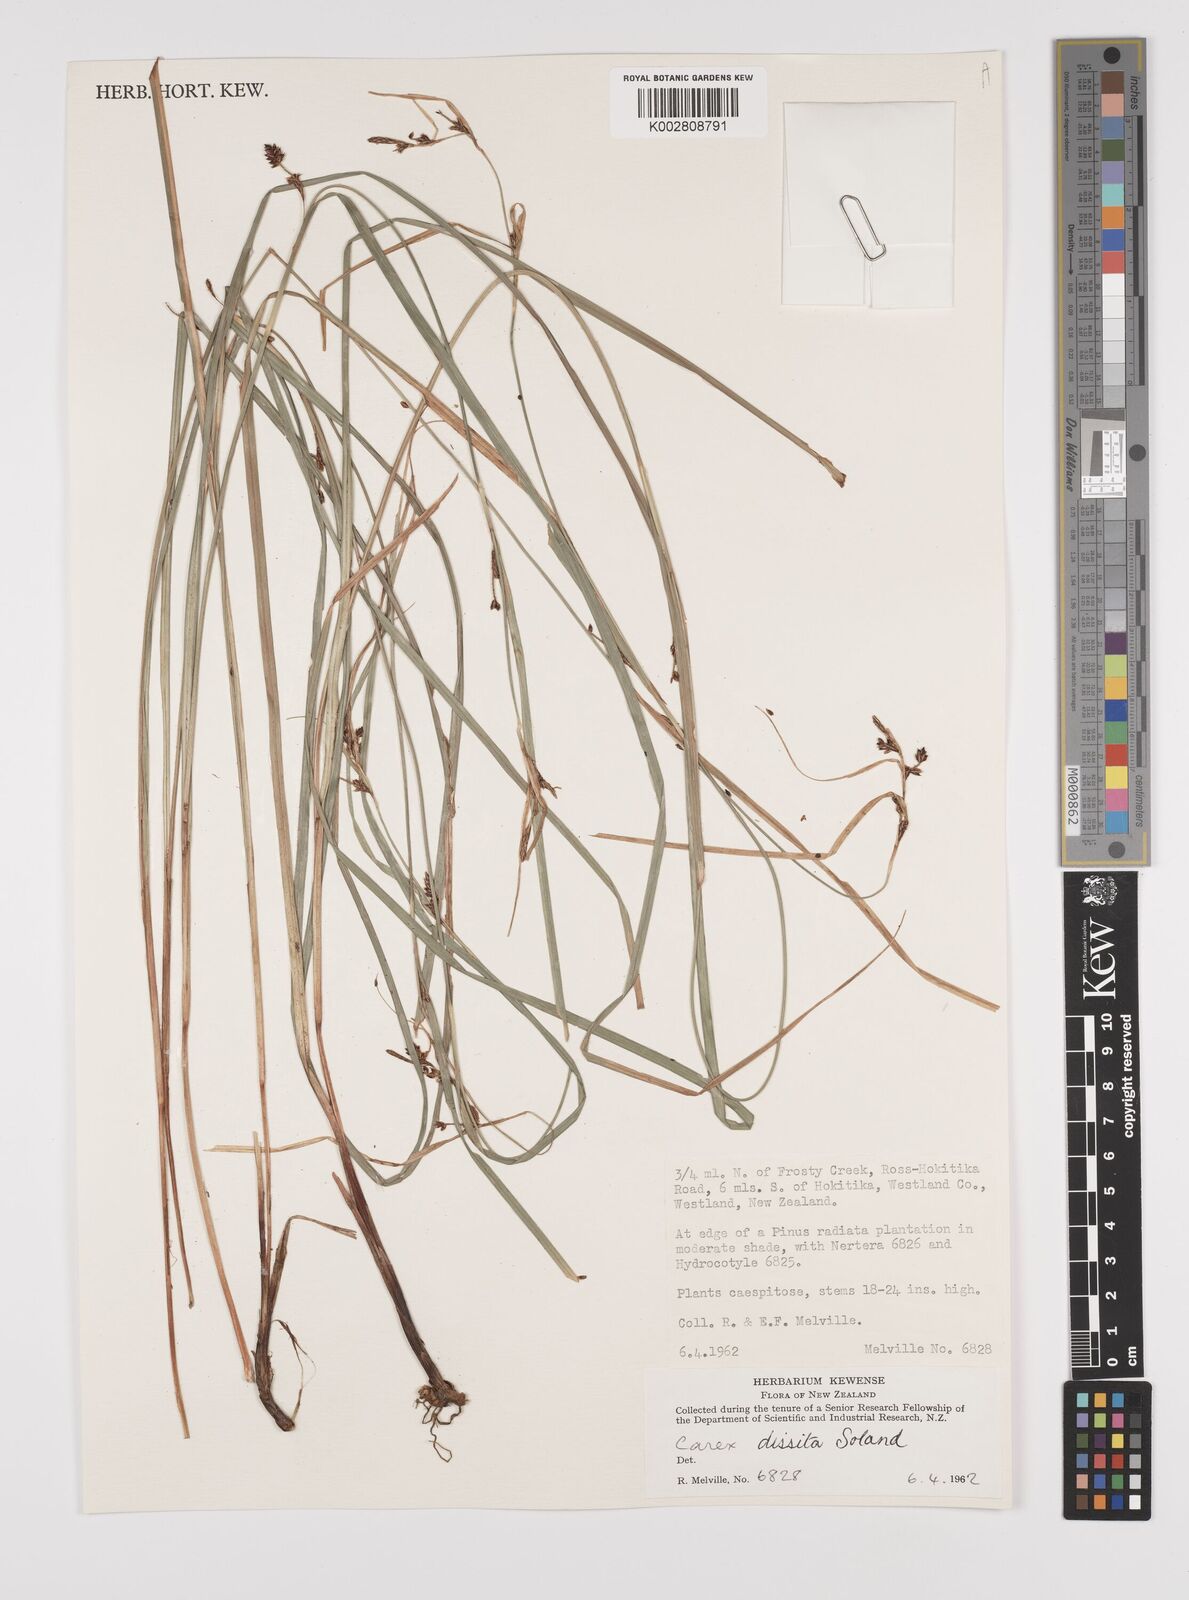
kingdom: Plantae
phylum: Tracheophyta
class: Liliopsida
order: Poales
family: Cyperaceae
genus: Carex
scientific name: Carex dissita
